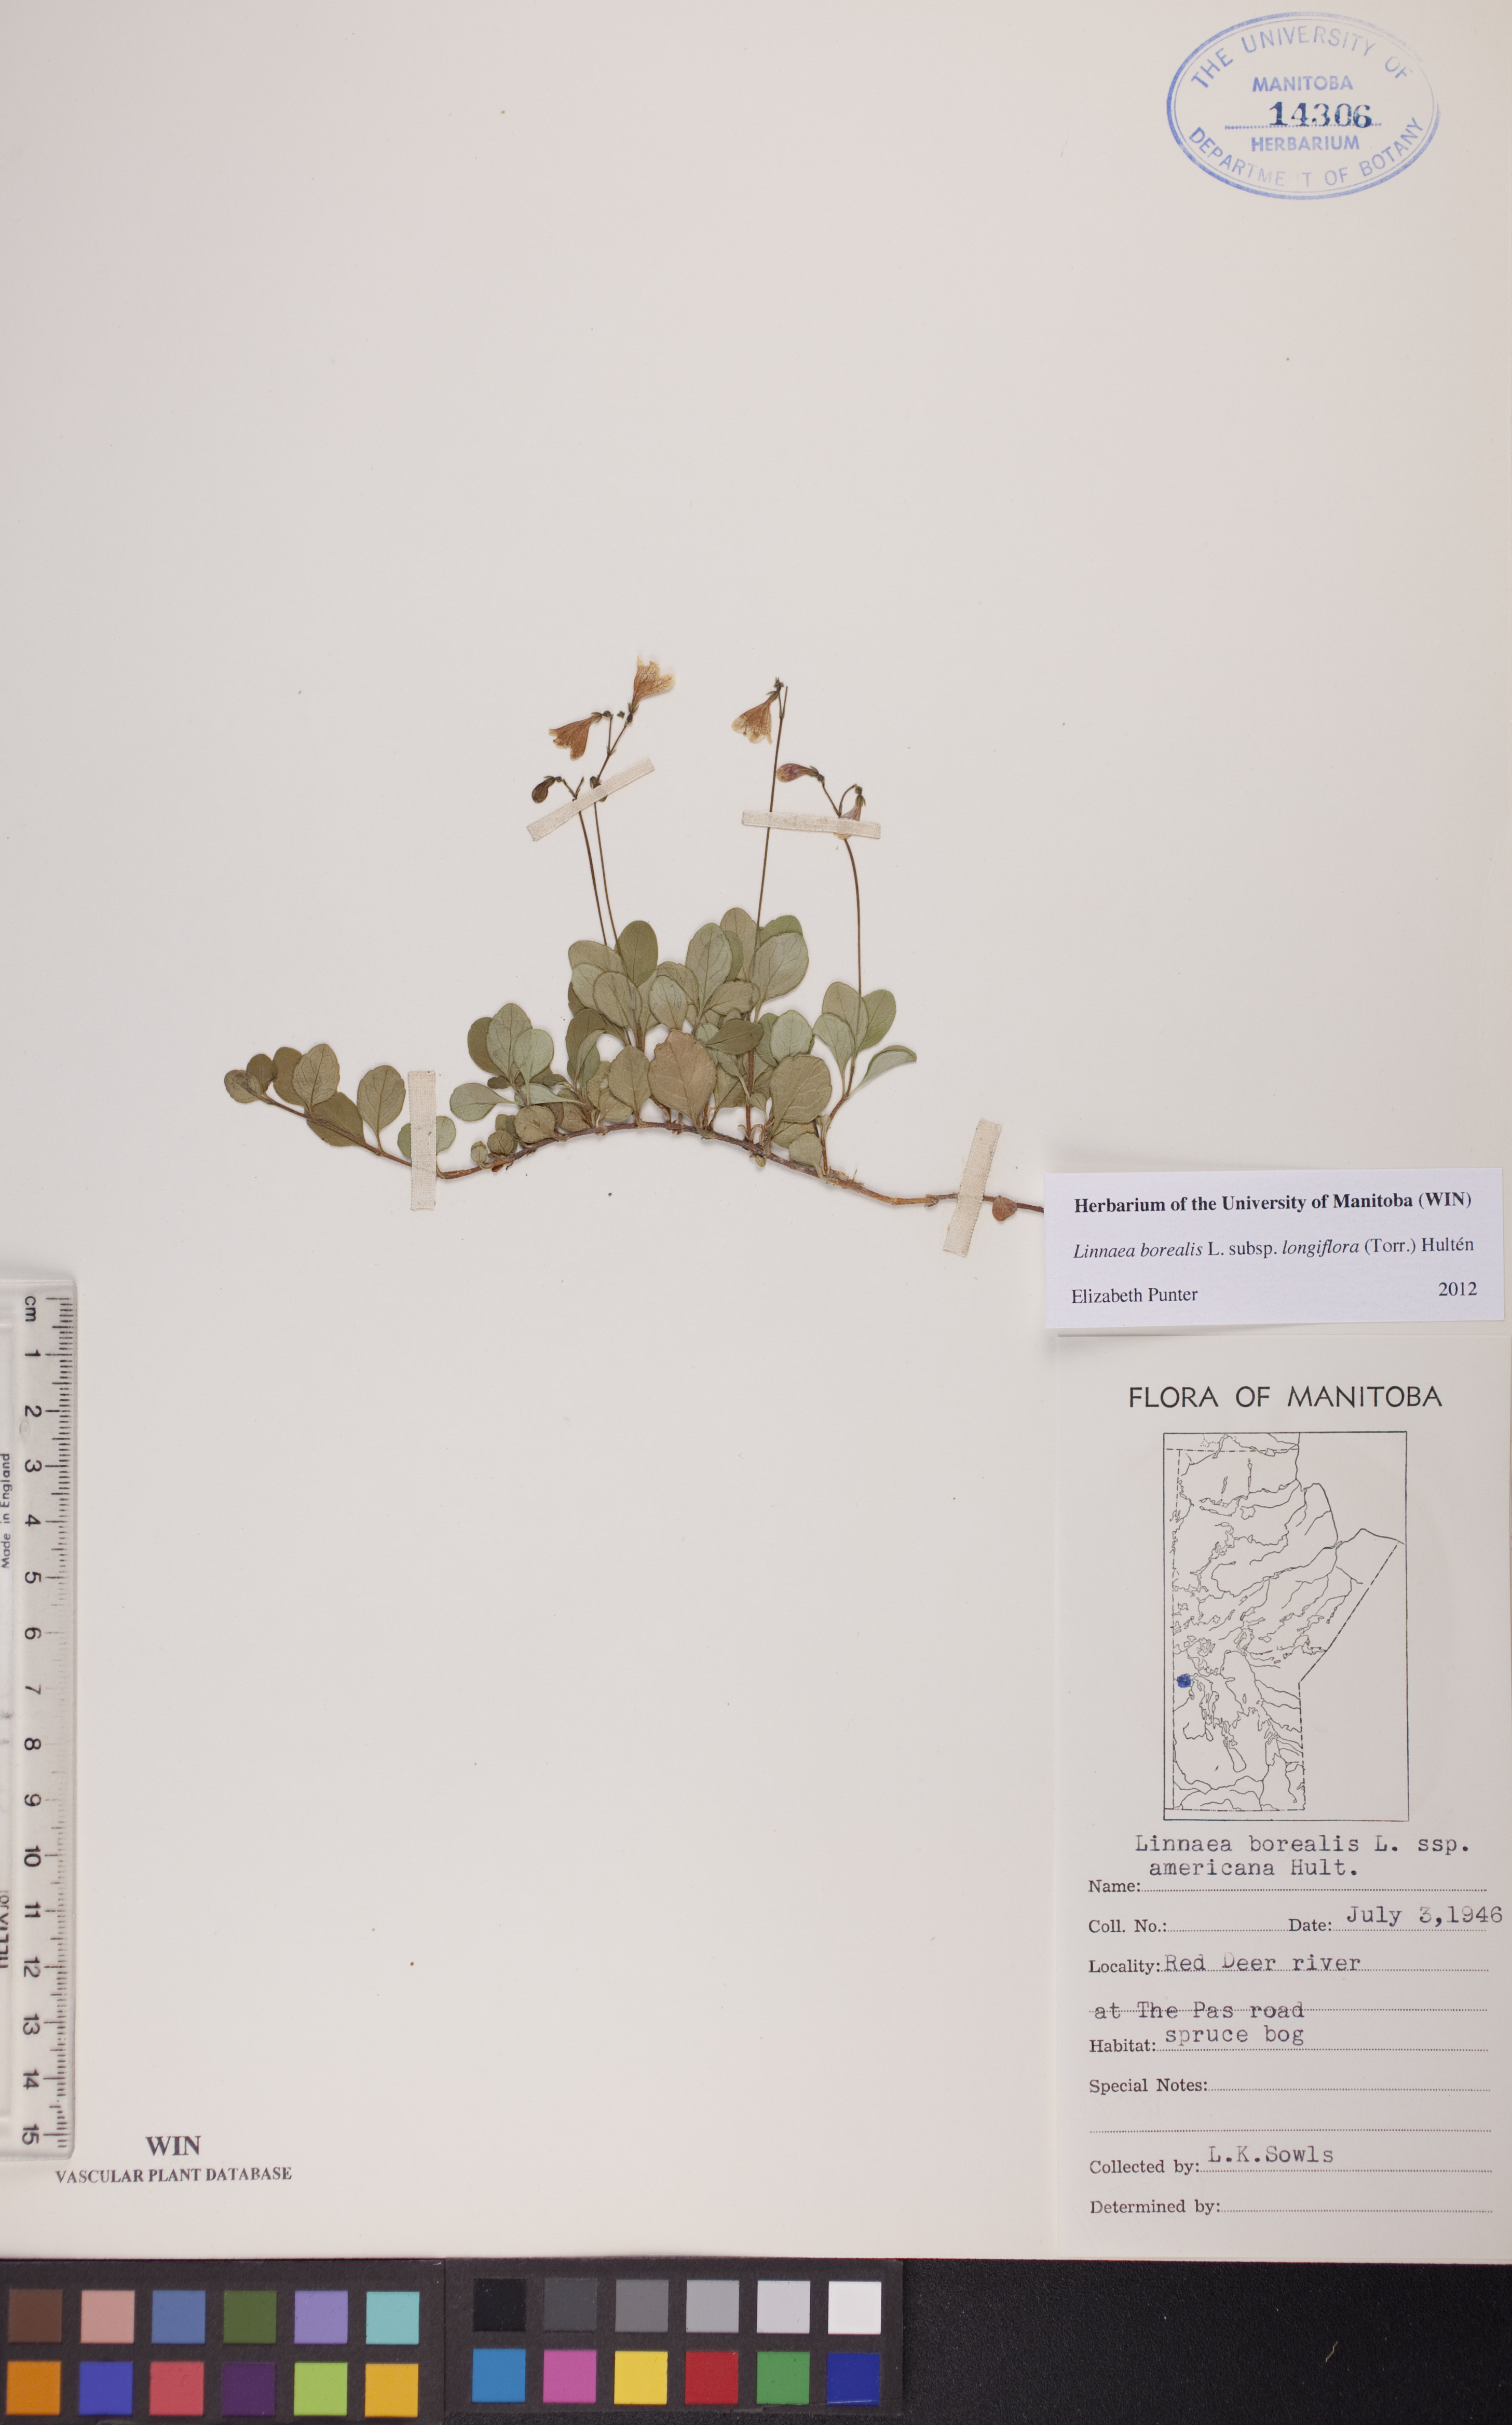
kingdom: Plantae
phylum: Tracheophyta
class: Magnoliopsida
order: Dipsacales
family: Caprifoliaceae
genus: Linnaea
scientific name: Linnaea borealis
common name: Twinflower
